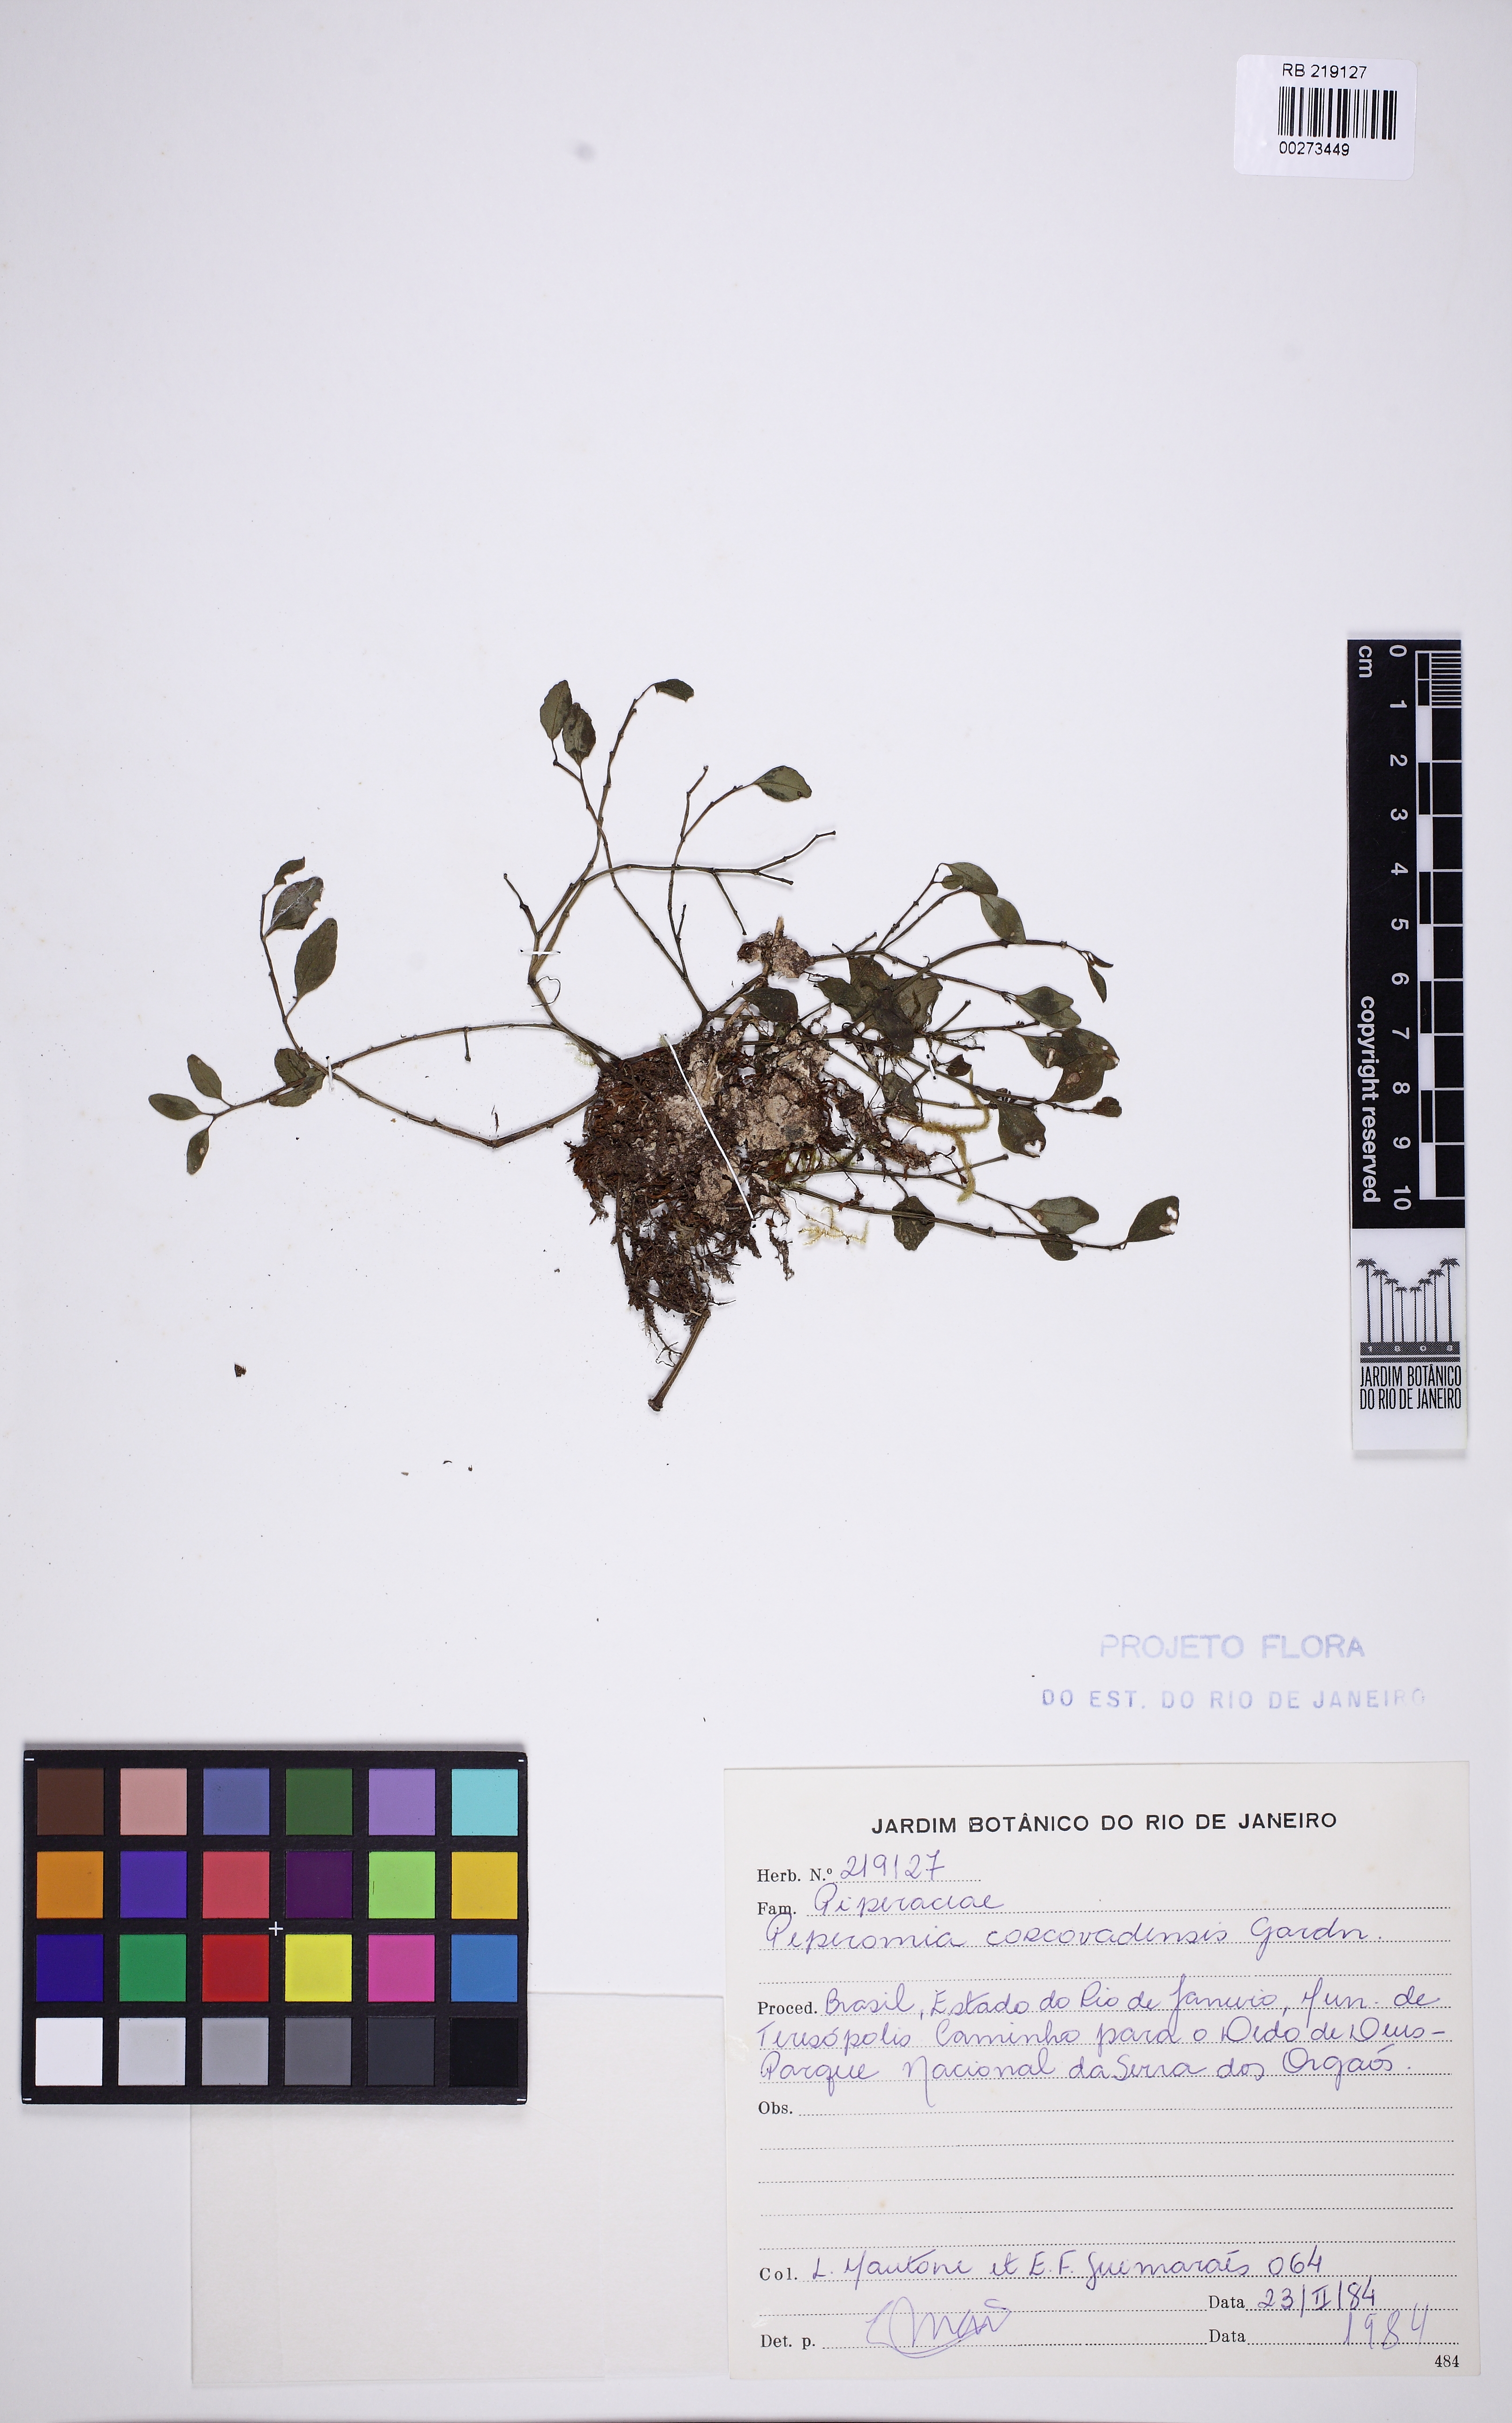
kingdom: Plantae
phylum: Tracheophyta
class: Magnoliopsida
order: Piperales
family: Piperaceae
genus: Peperomia
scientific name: Peperomia corcovadensis
